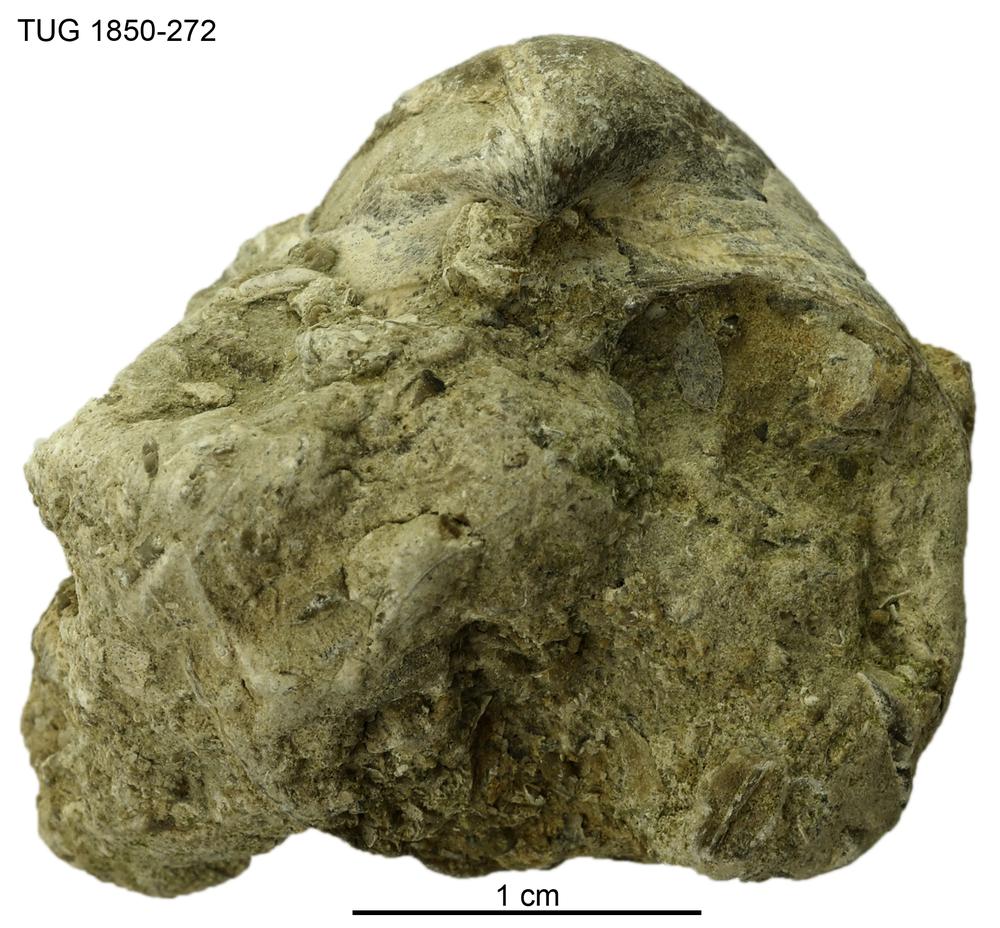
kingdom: Animalia
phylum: Brachiopoda
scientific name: Brachiopoda
